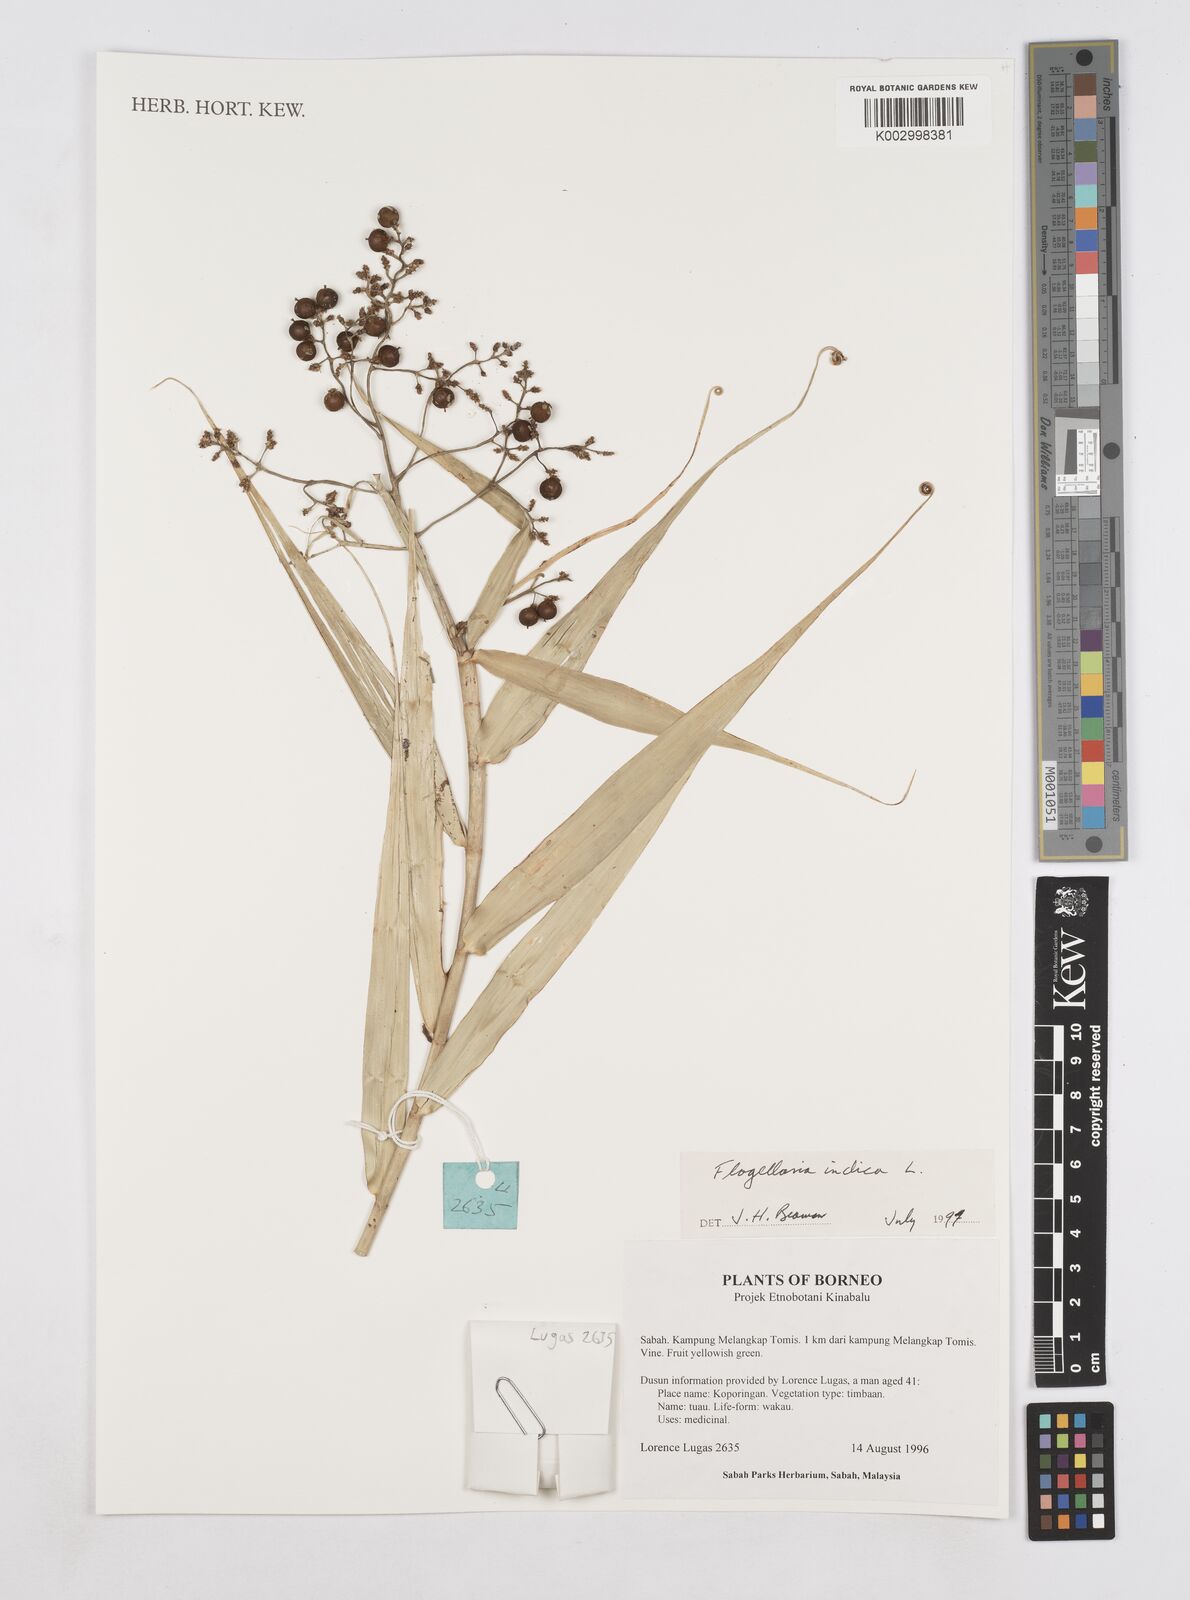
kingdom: Plantae
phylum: Tracheophyta
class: Liliopsida
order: Poales
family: Flagellariaceae
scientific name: Flagellariaceae
